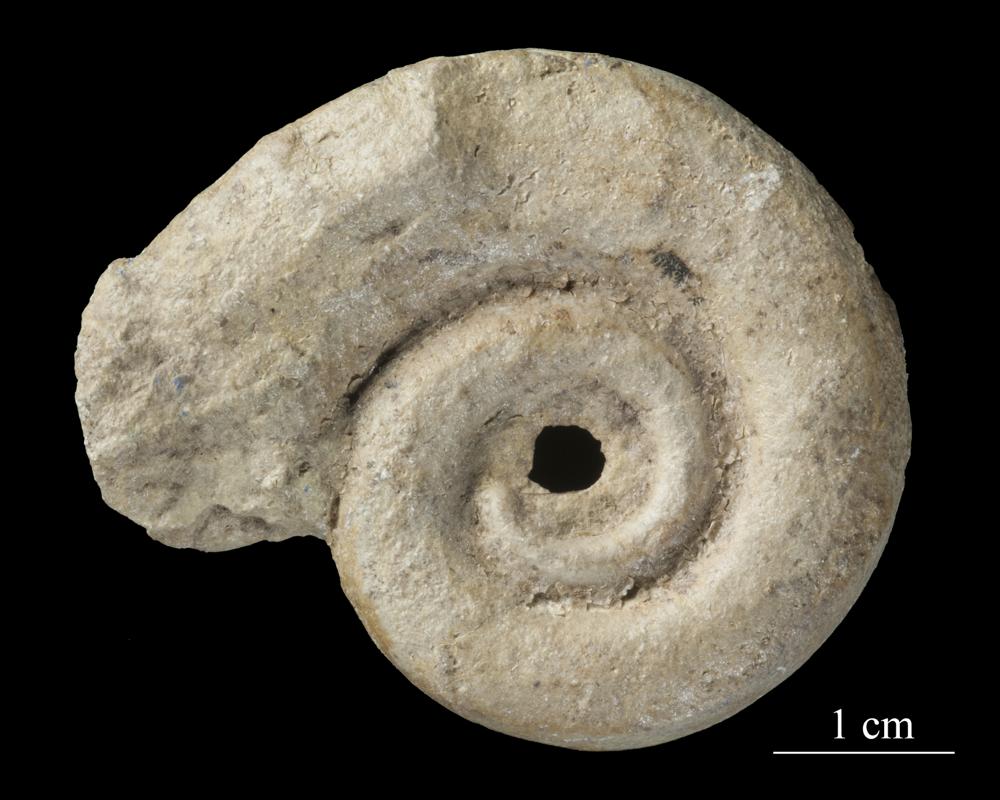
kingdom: Animalia
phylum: Mollusca
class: Gastropoda
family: Lesueurillidae
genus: Mestoronema
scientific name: Mestoronema Euomphalus marginalis
